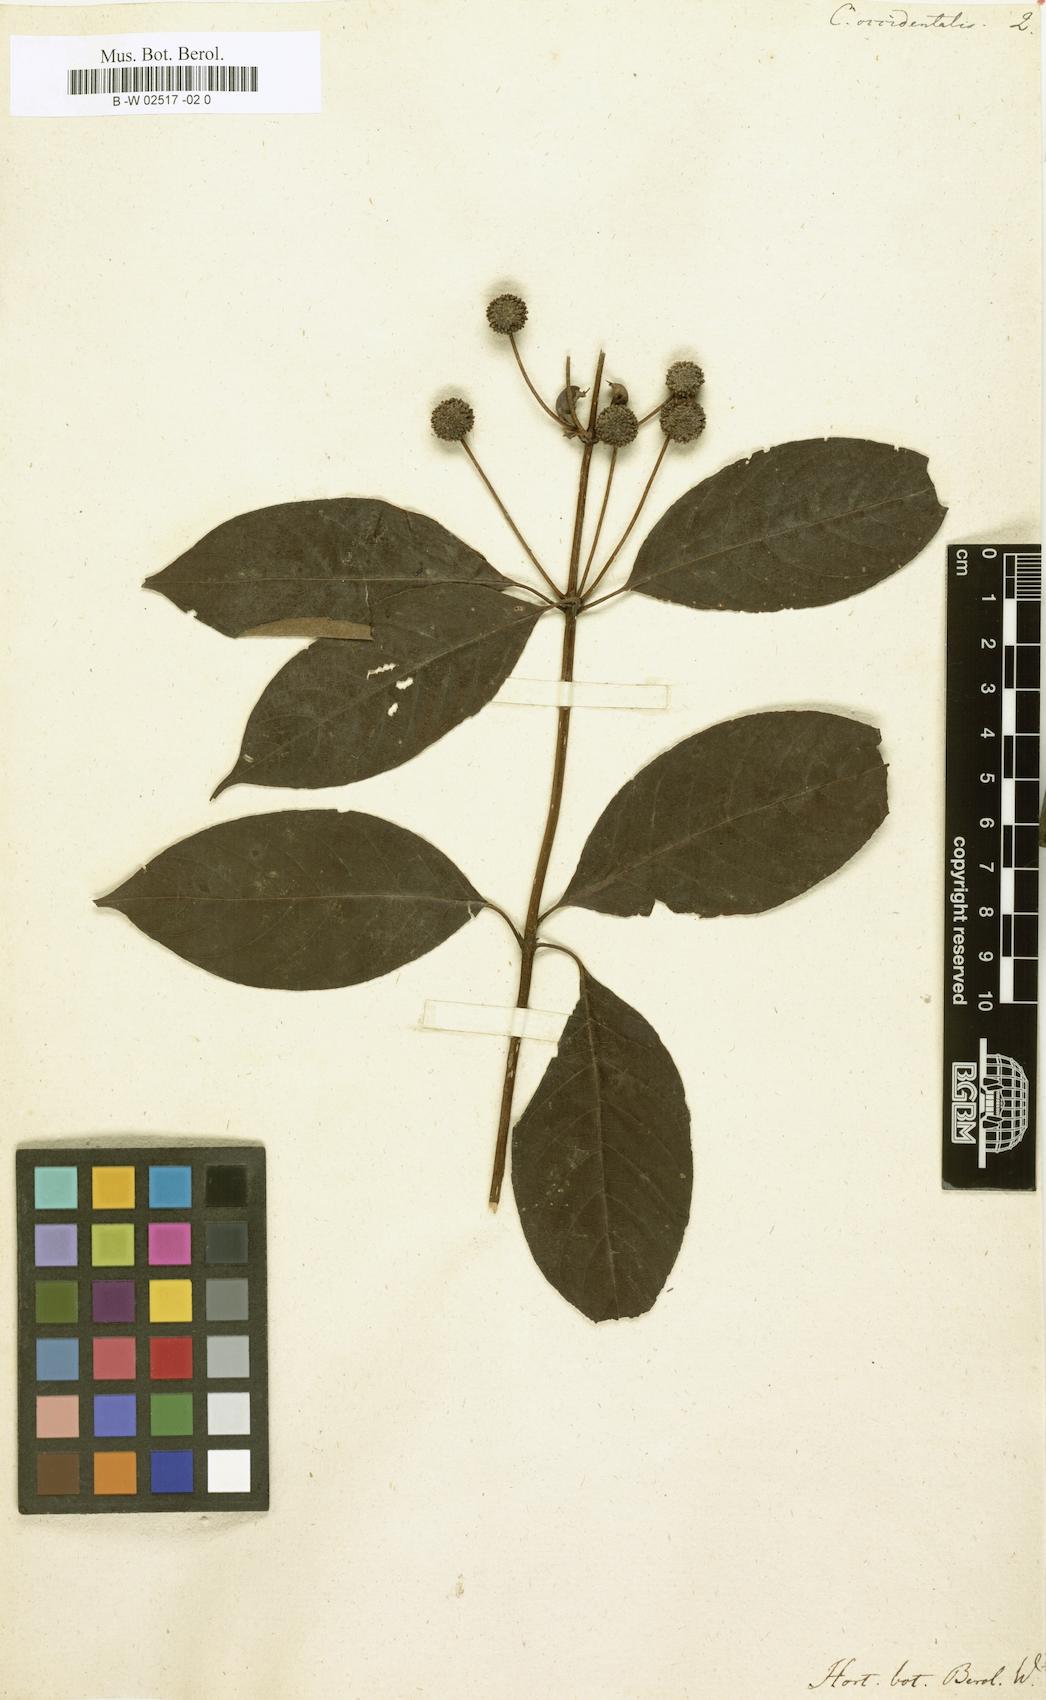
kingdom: Plantae
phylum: Tracheophyta
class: Magnoliopsida
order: Gentianales
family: Rubiaceae
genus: Cephalanthus
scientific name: Cephalanthus occidentalis
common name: Button-willow
